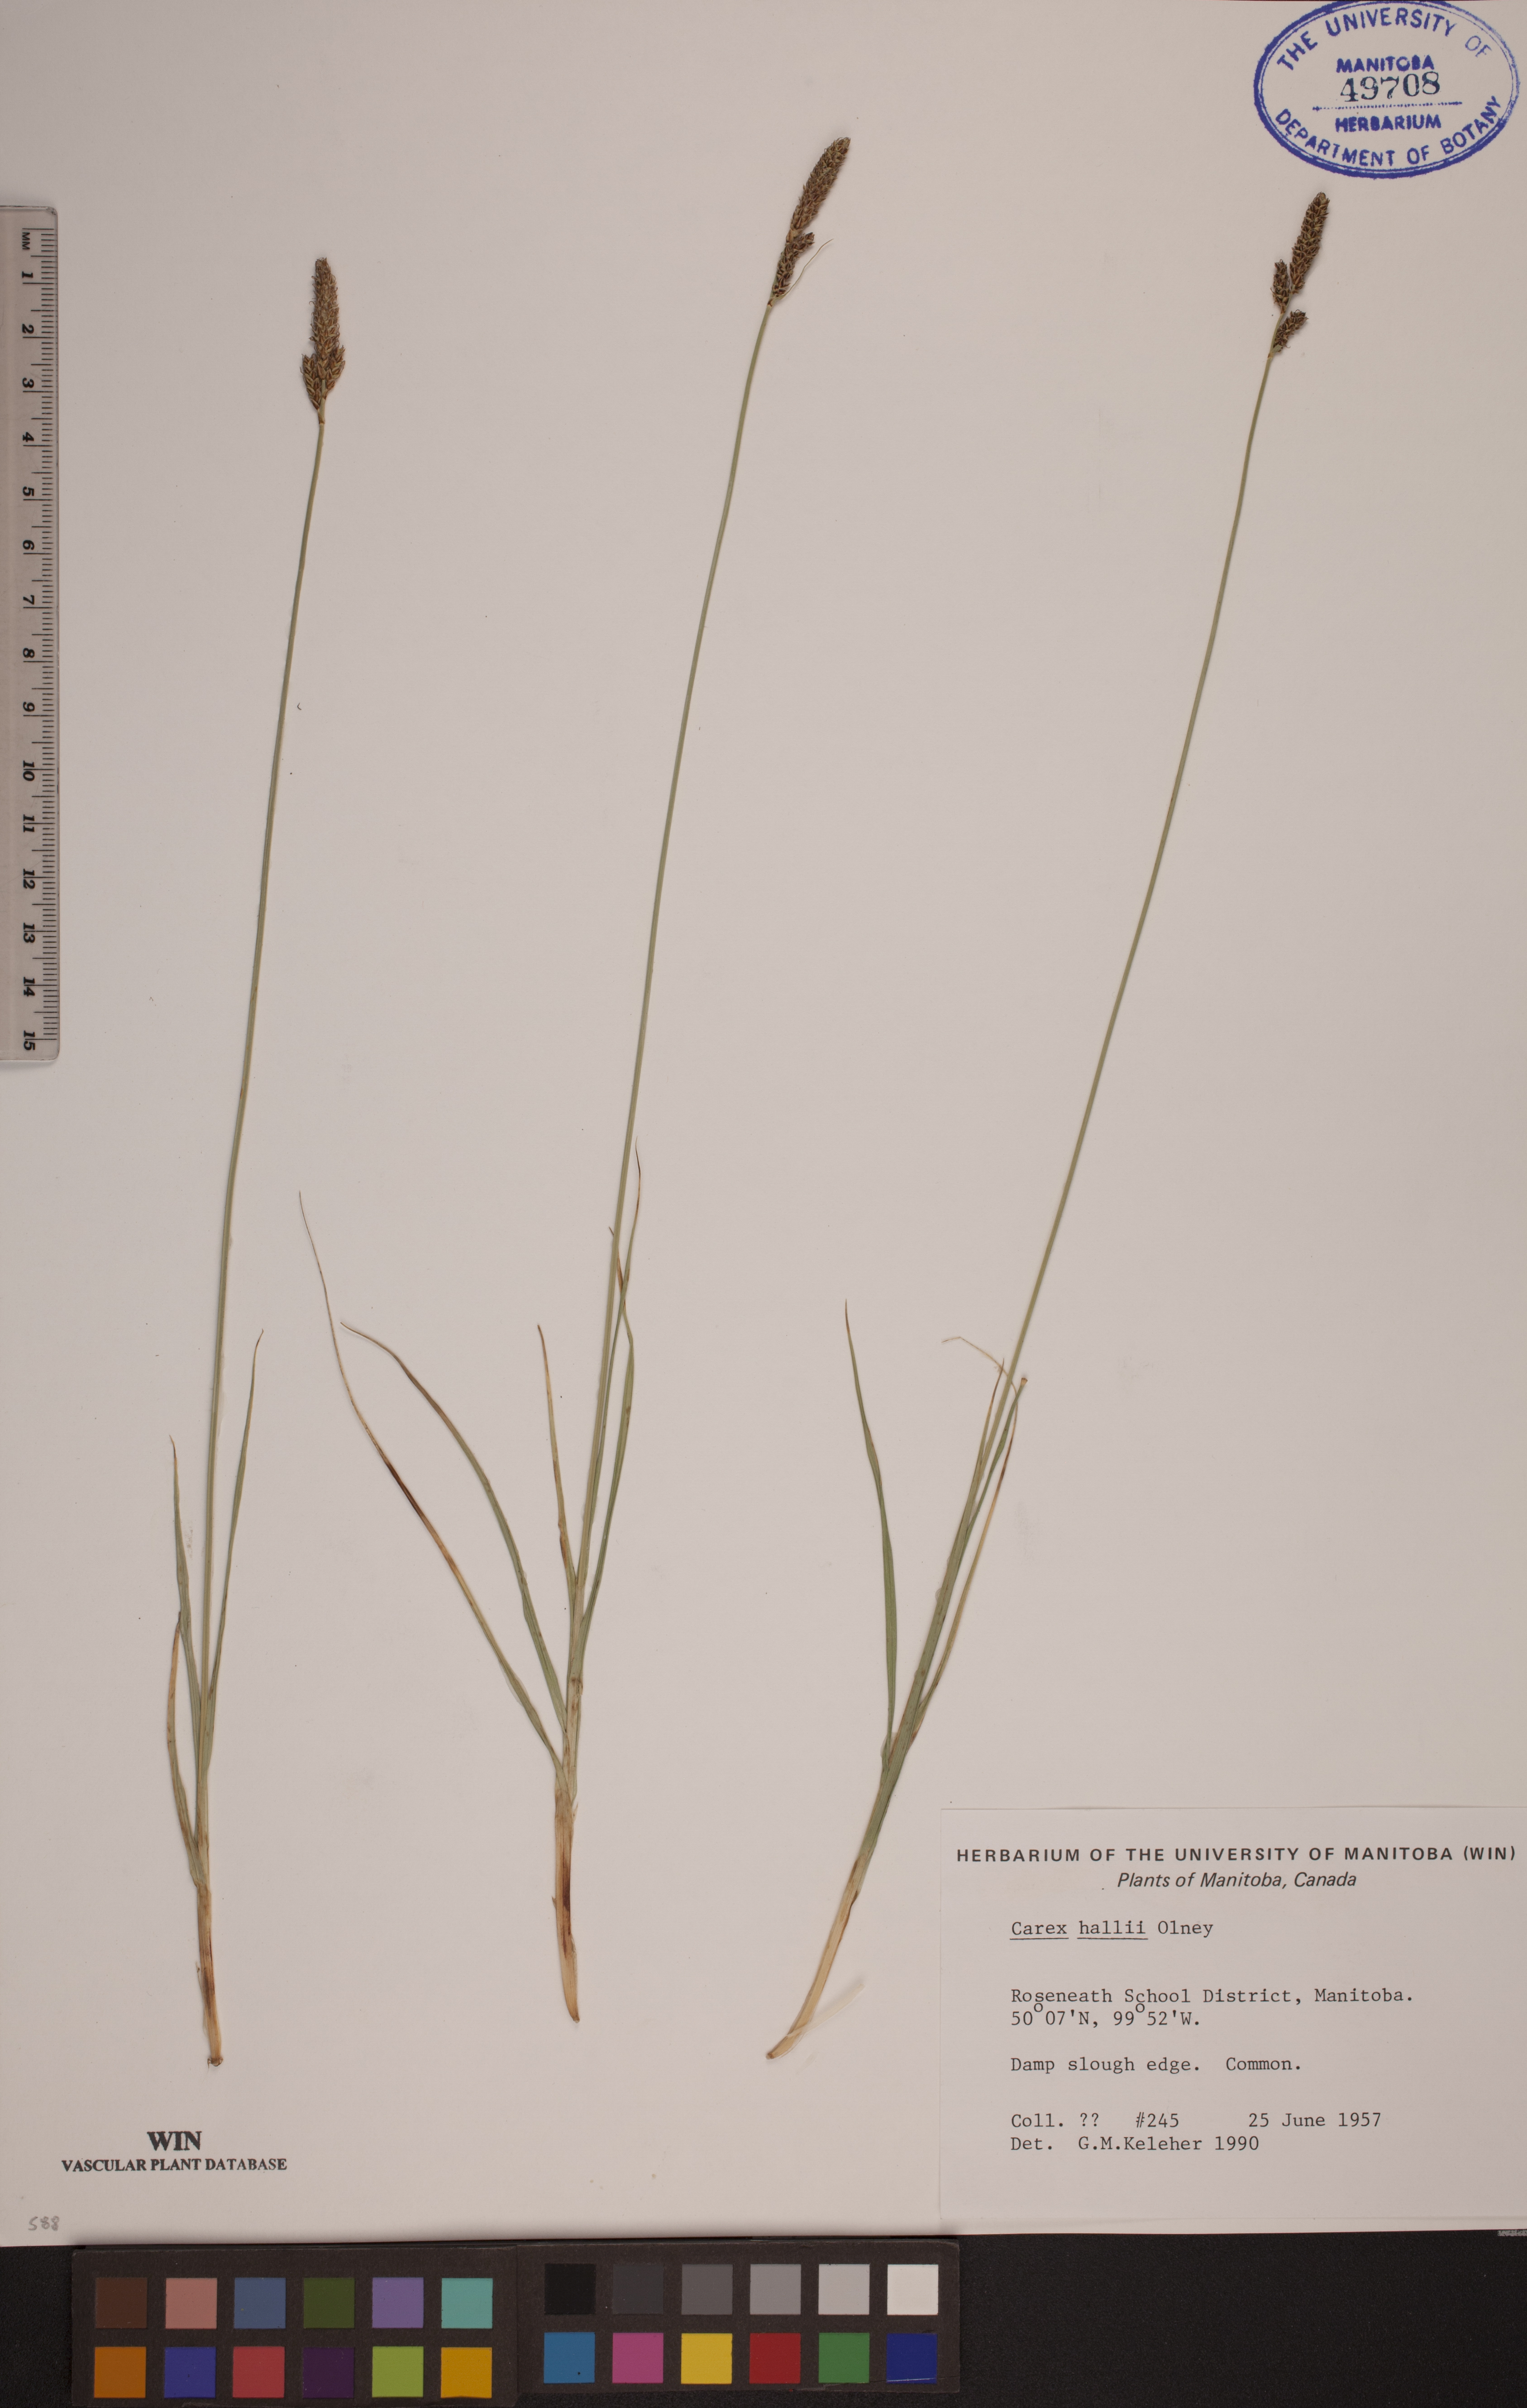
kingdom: Plantae
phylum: Tracheophyta
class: Liliopsida
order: Poales
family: Cyperaceae
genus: Carex
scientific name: Carex hallii
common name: Deer sedge
